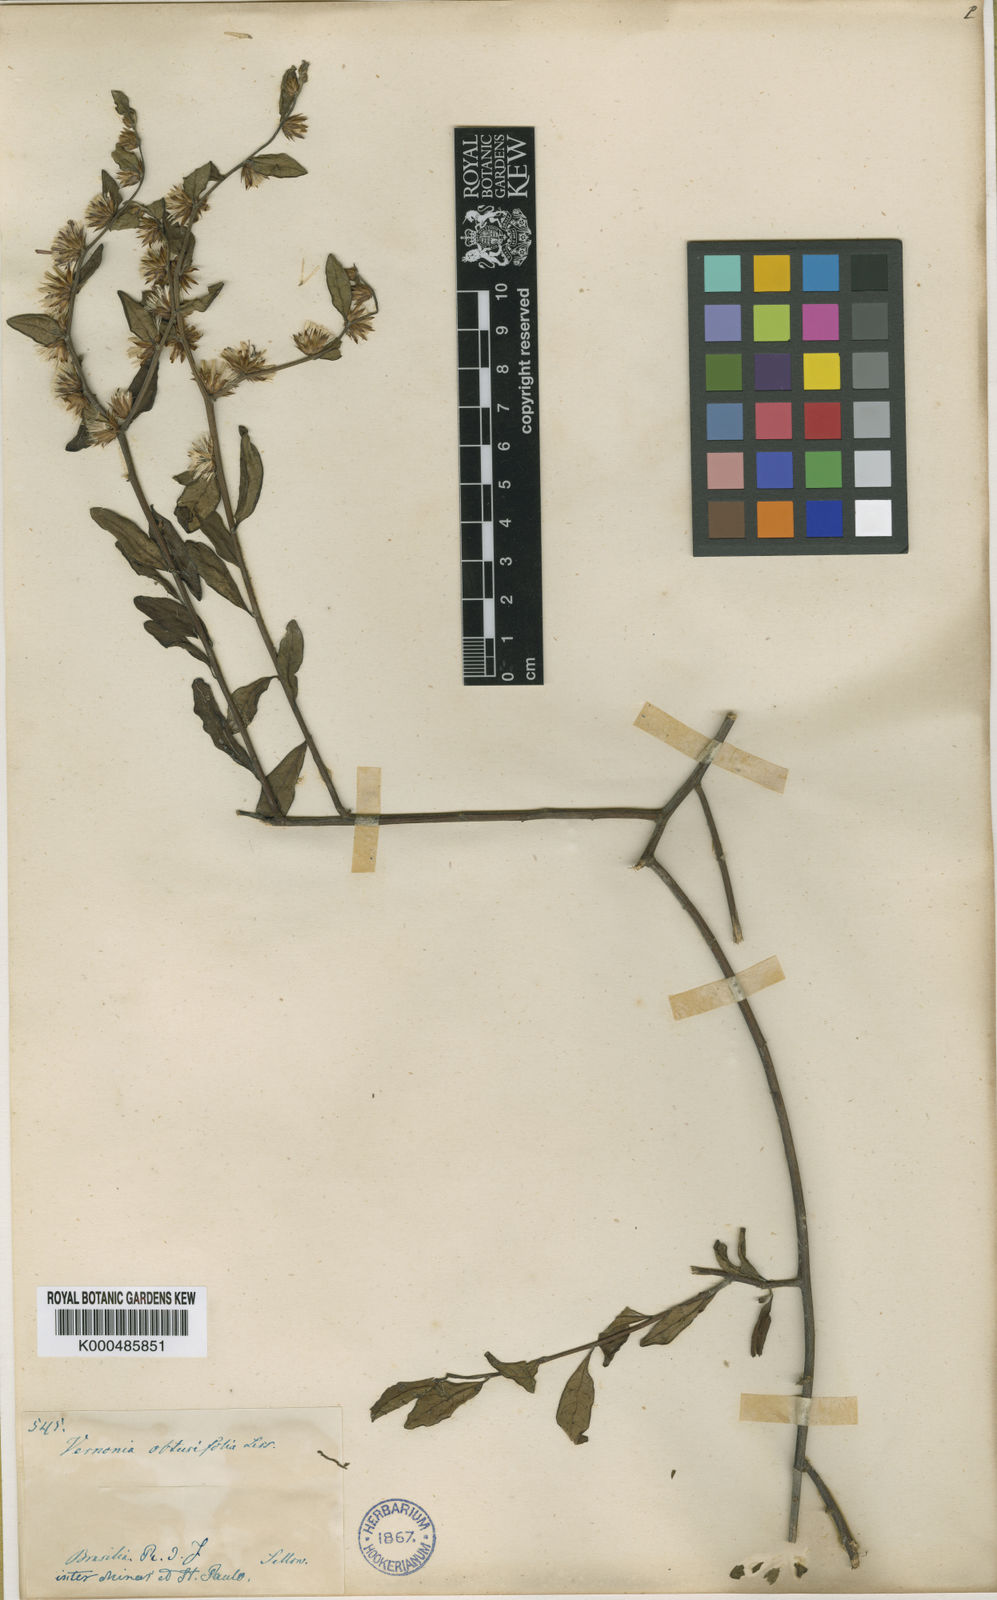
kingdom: Plantae
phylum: Tracheophyta
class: Magnoliopsida
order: Asterales
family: Asteraceae
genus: Lepidaploa
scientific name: Lepidaploa obtusifolia
